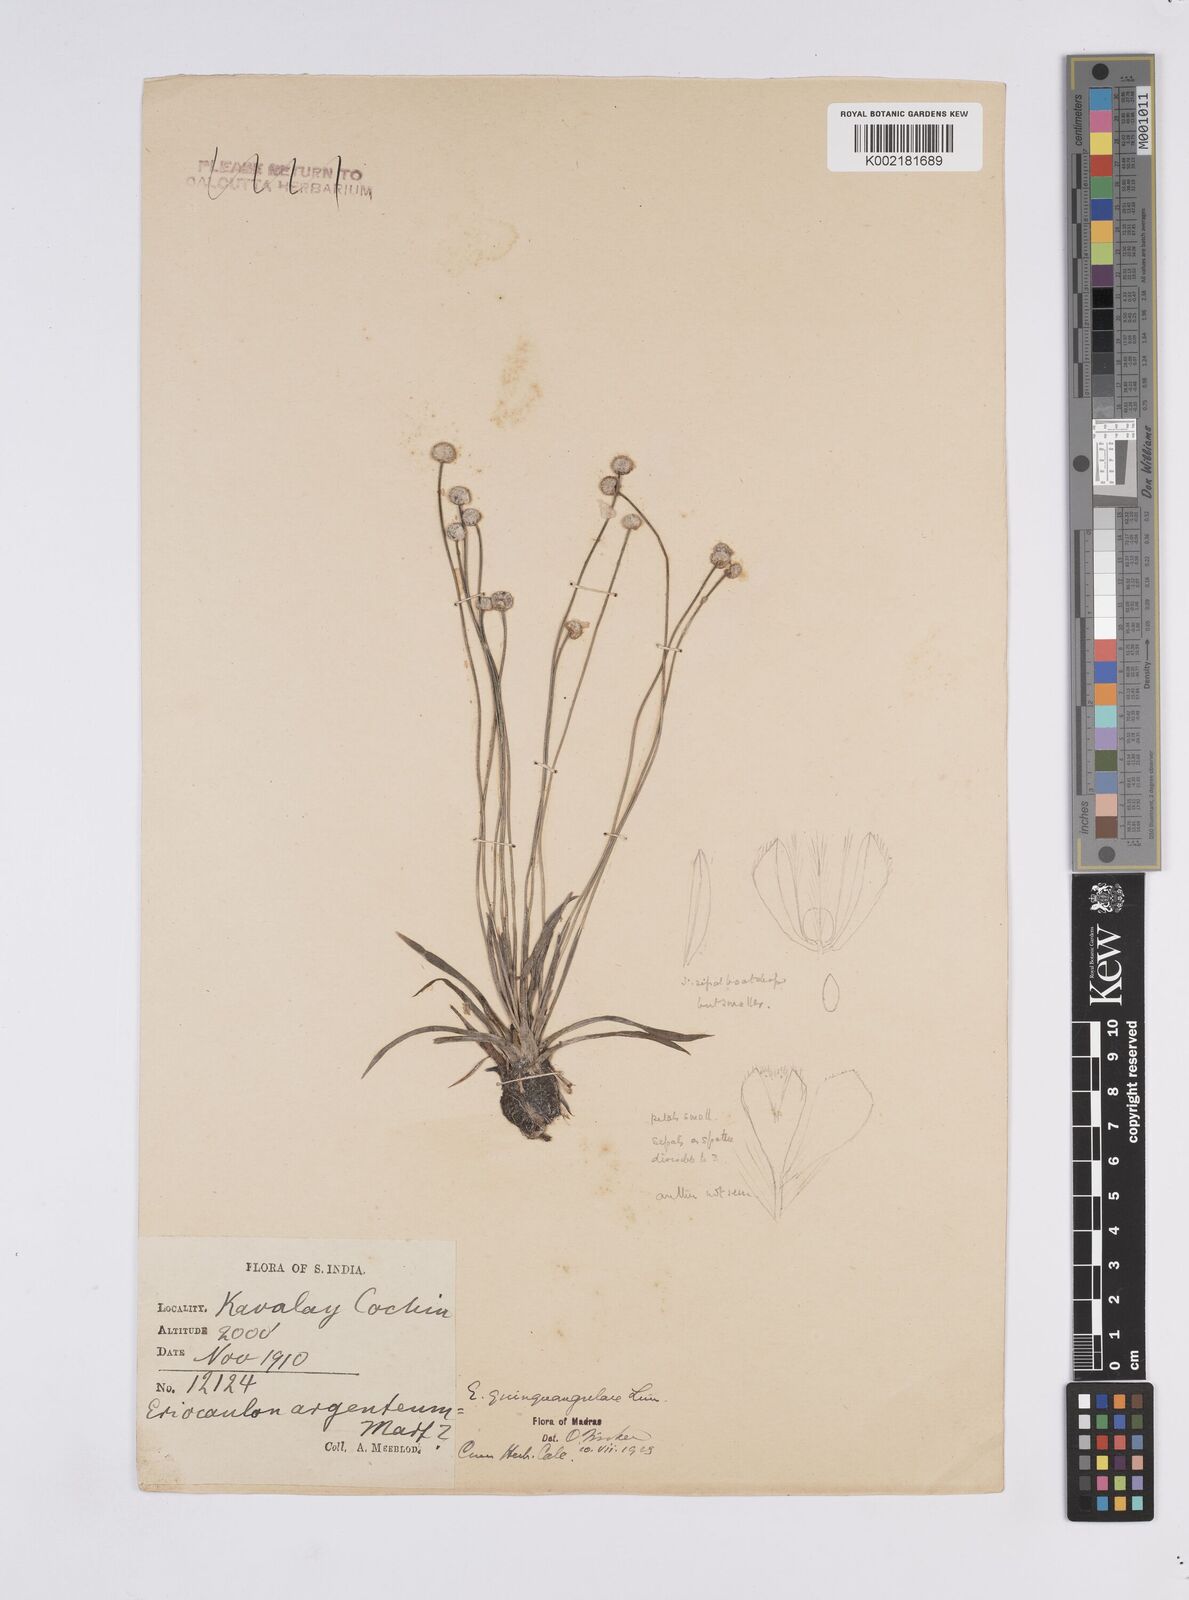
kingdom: Plantae
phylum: Tracheophyta
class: Liliopsida
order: Poales
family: Eriocaulaceae
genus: Eriocaulon
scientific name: Eriocaulon quinquangulare
